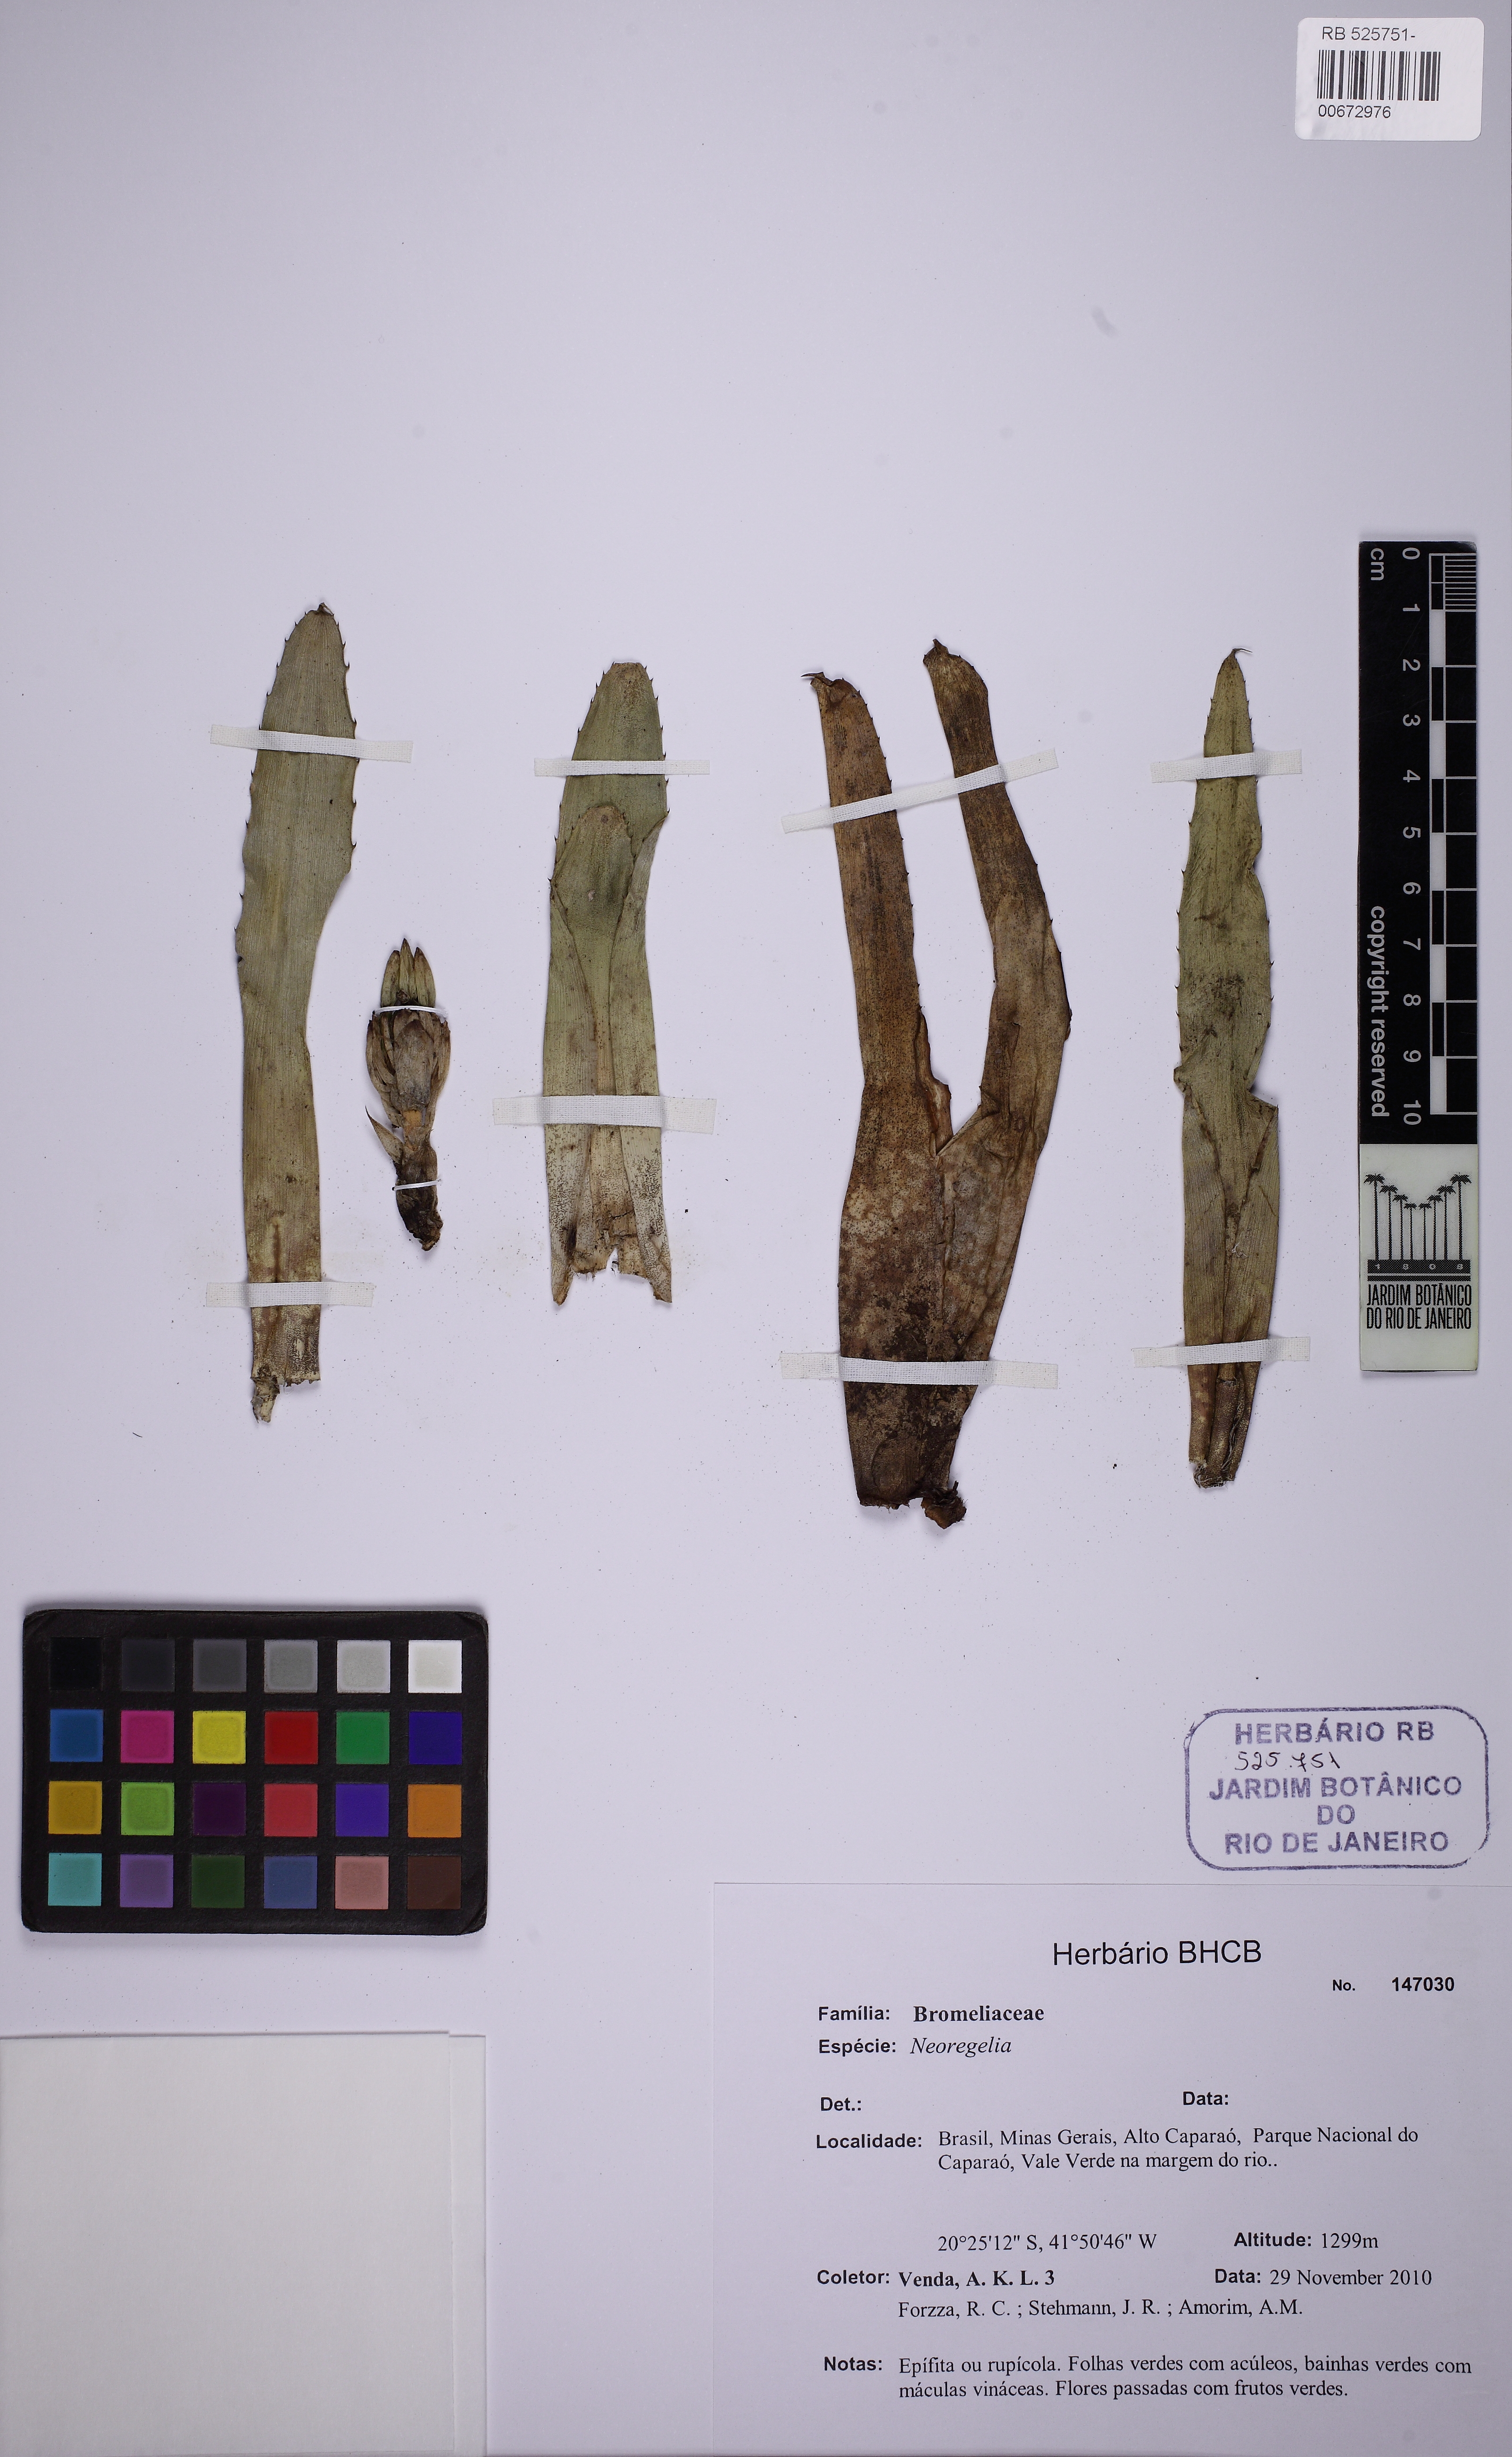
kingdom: Plantae
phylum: Tracheophyta
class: Liliopsida
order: Poales
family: Bromeliaceae
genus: Neoregelia
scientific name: Neoregelia lymaniana
